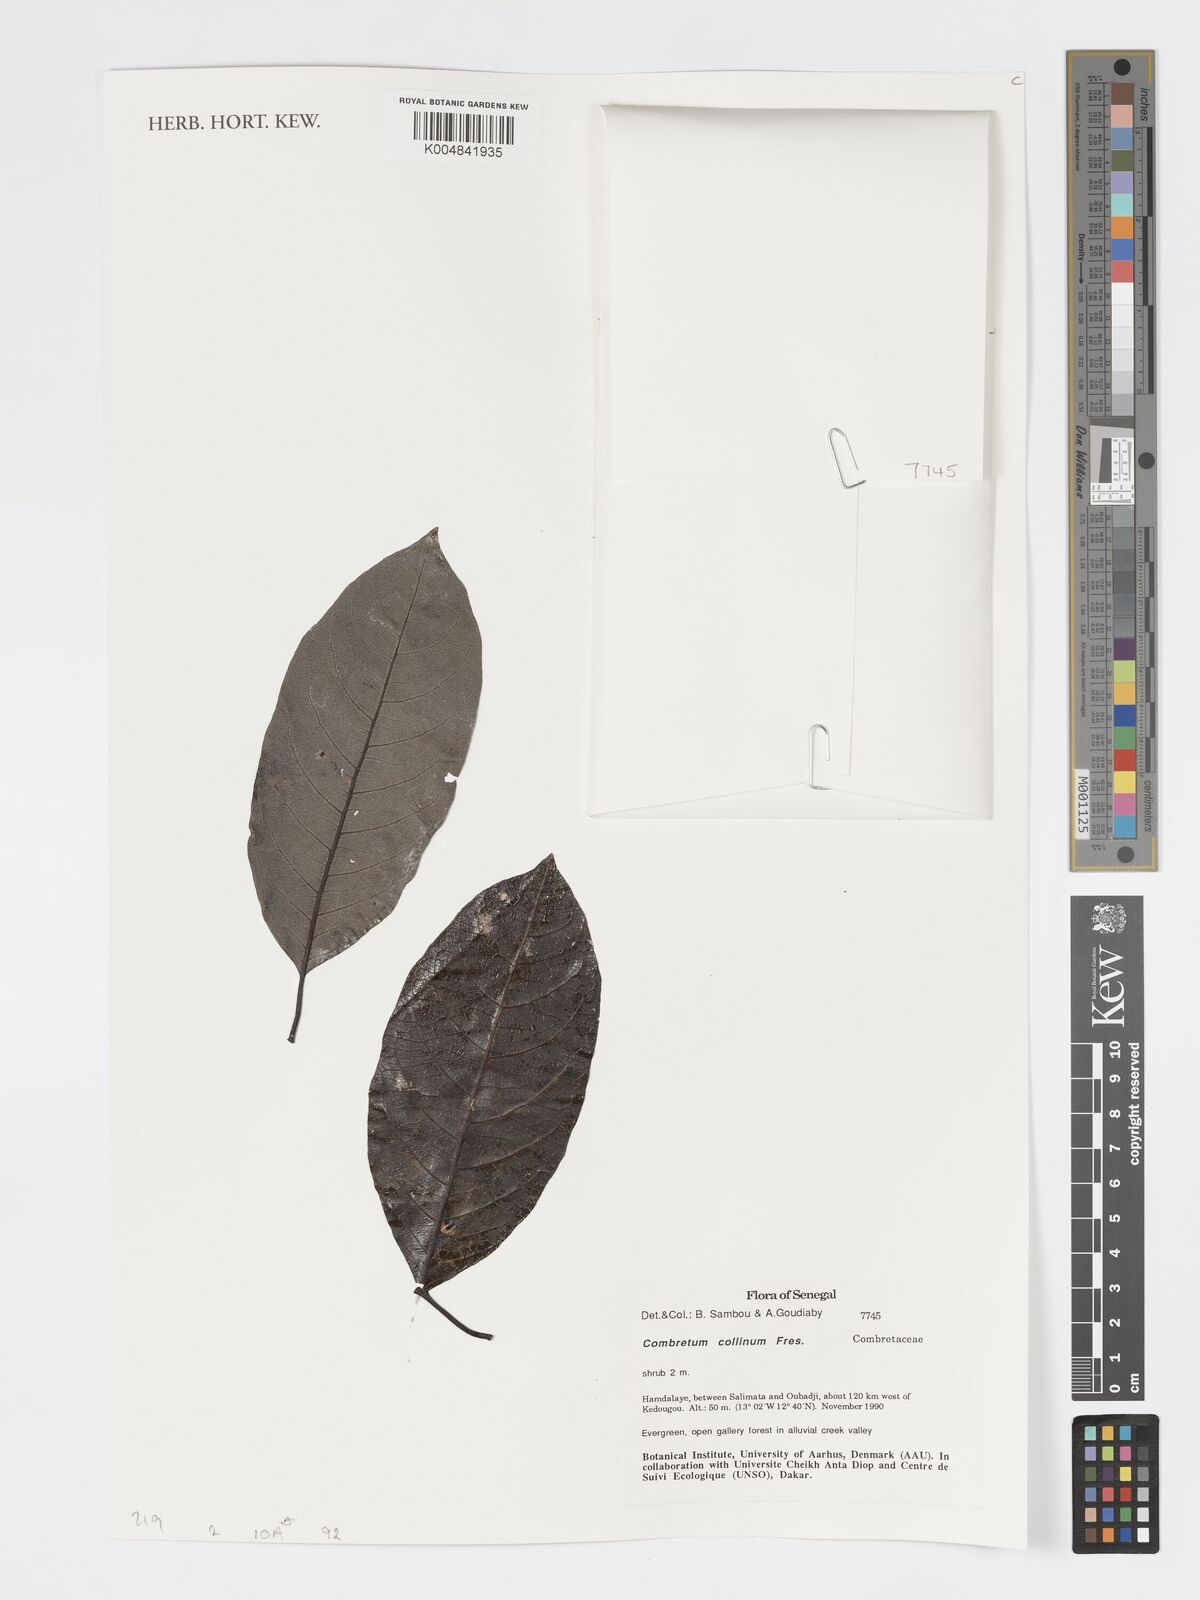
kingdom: Plantae
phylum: Tracheophyta
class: Magnoliopsida
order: Myrtales
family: Combretaceae
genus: Combretum
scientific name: Combretum collinum
